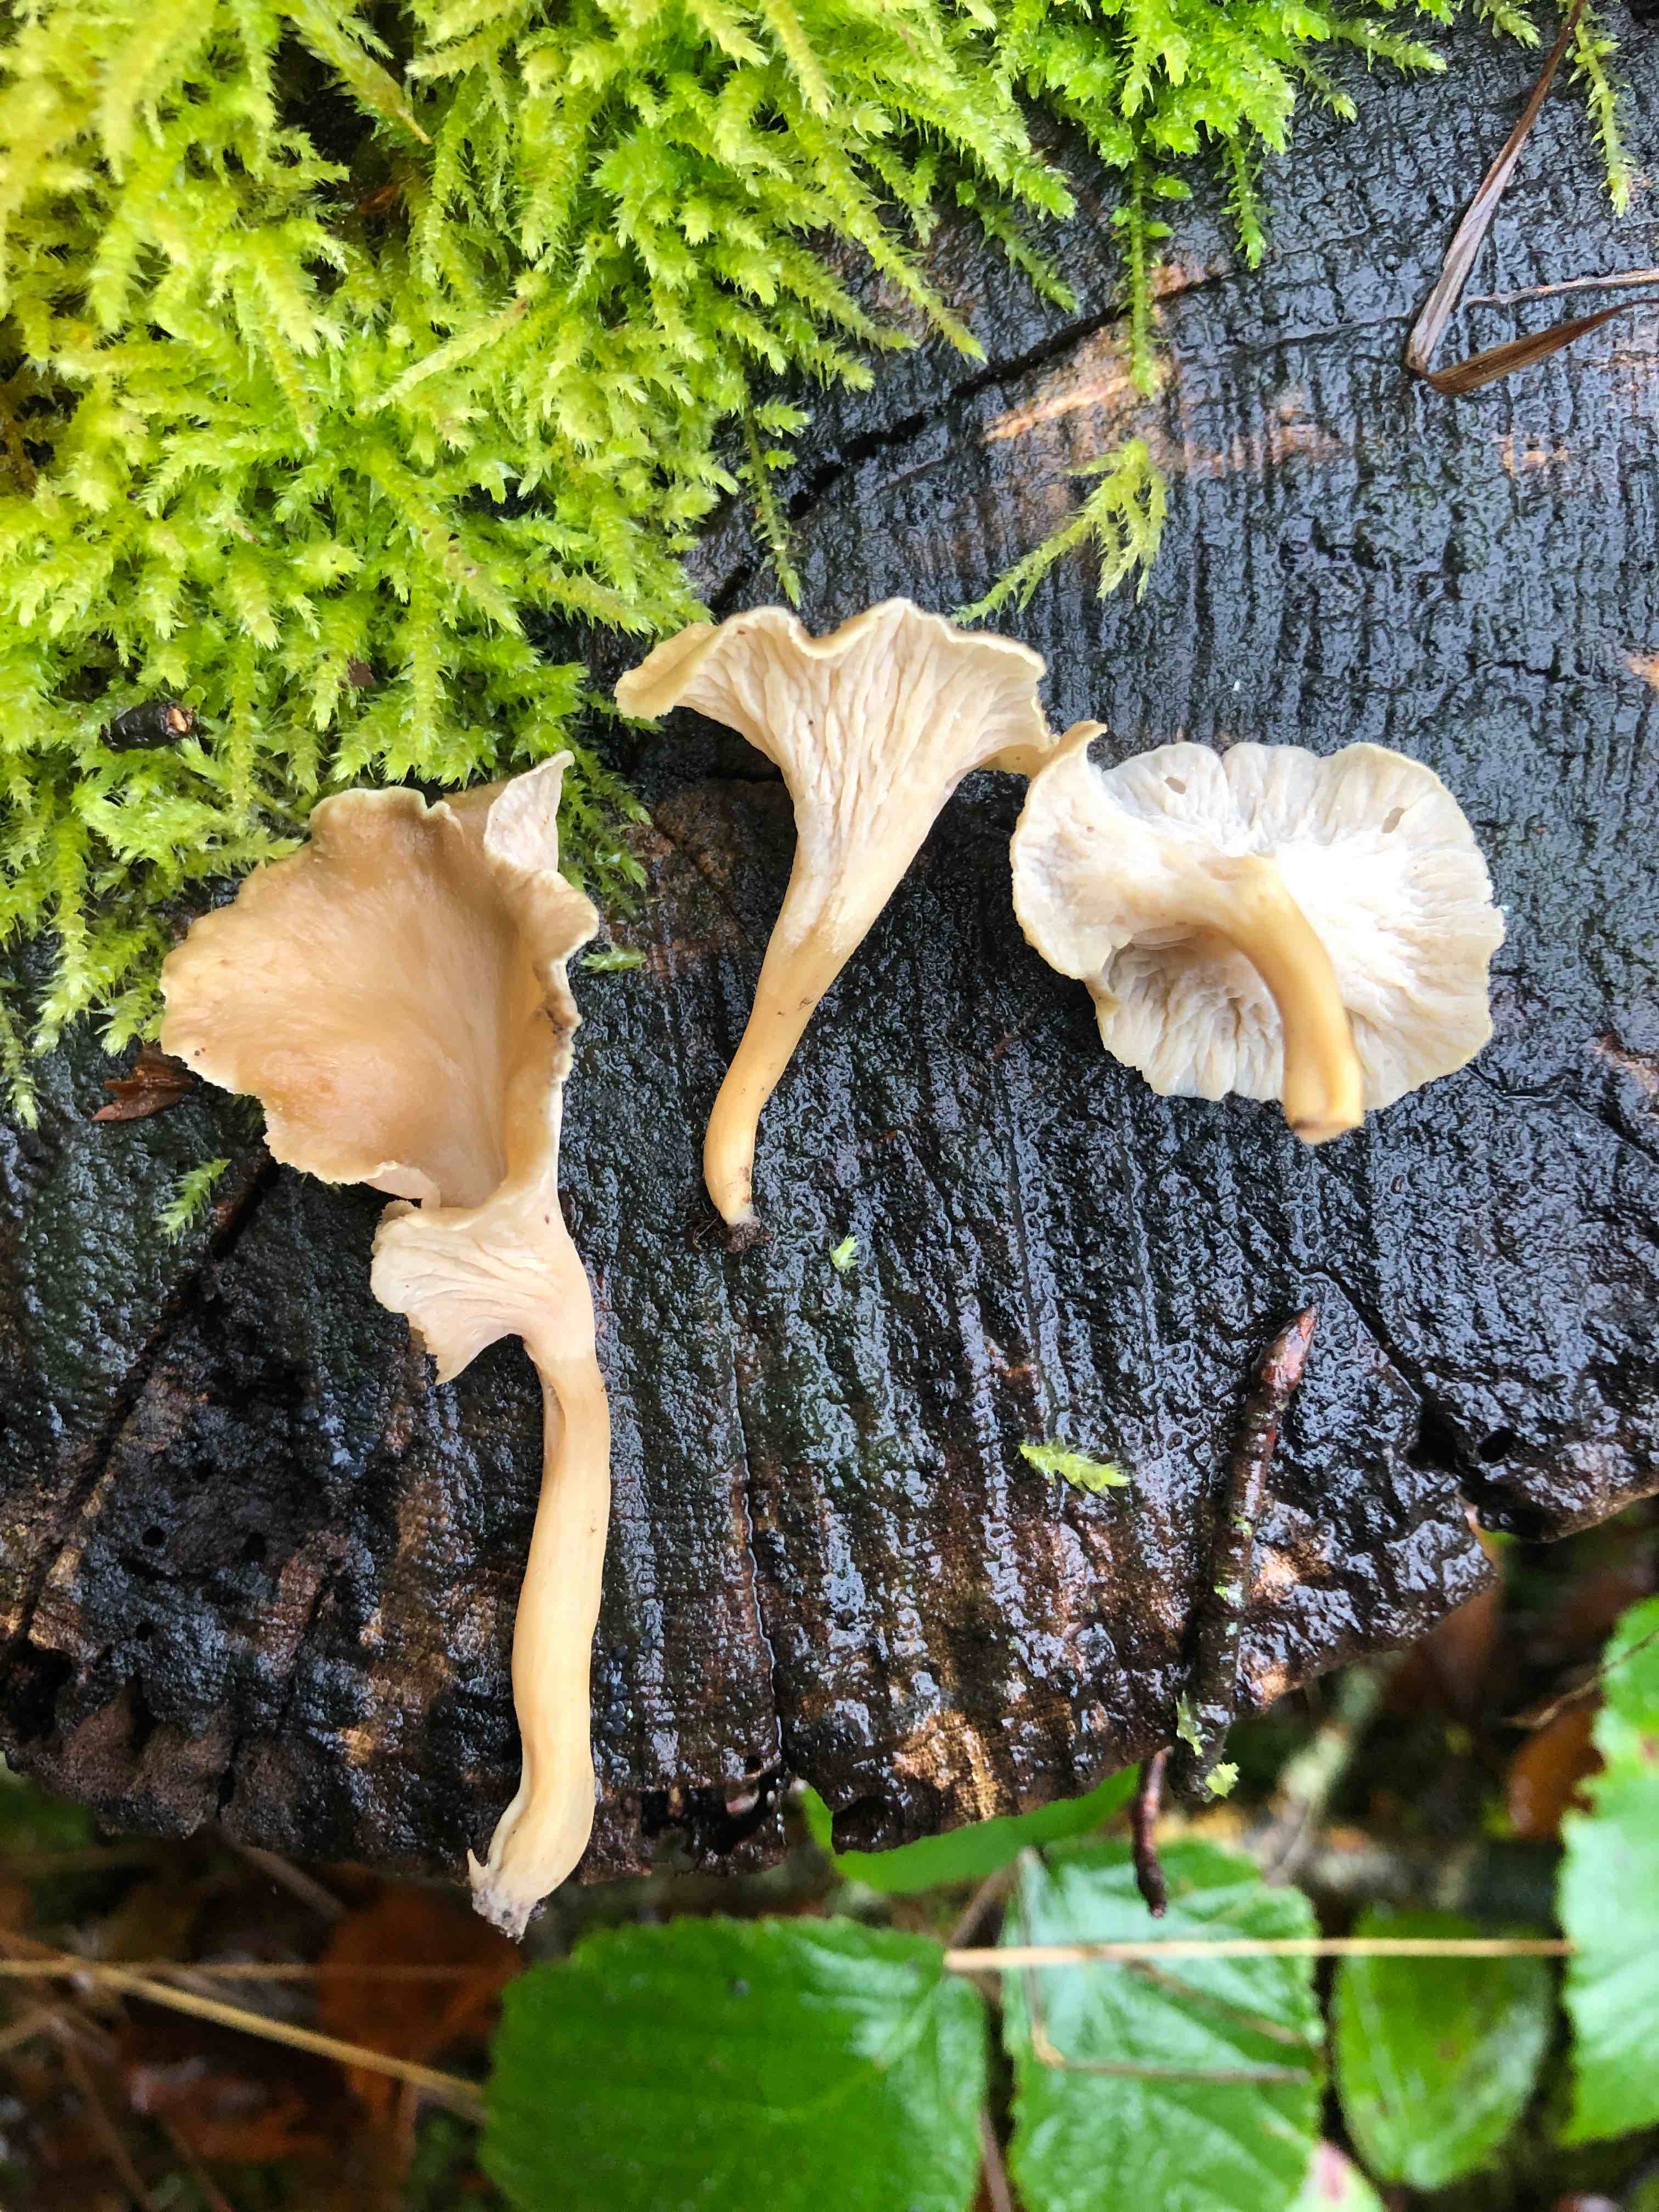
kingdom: Fungi
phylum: Basidiomycota
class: Agaricomycetes
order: Cantharellales
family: Hydnaceae
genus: Craterellus
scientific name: Craterellus undulatus
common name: liden kantarel
